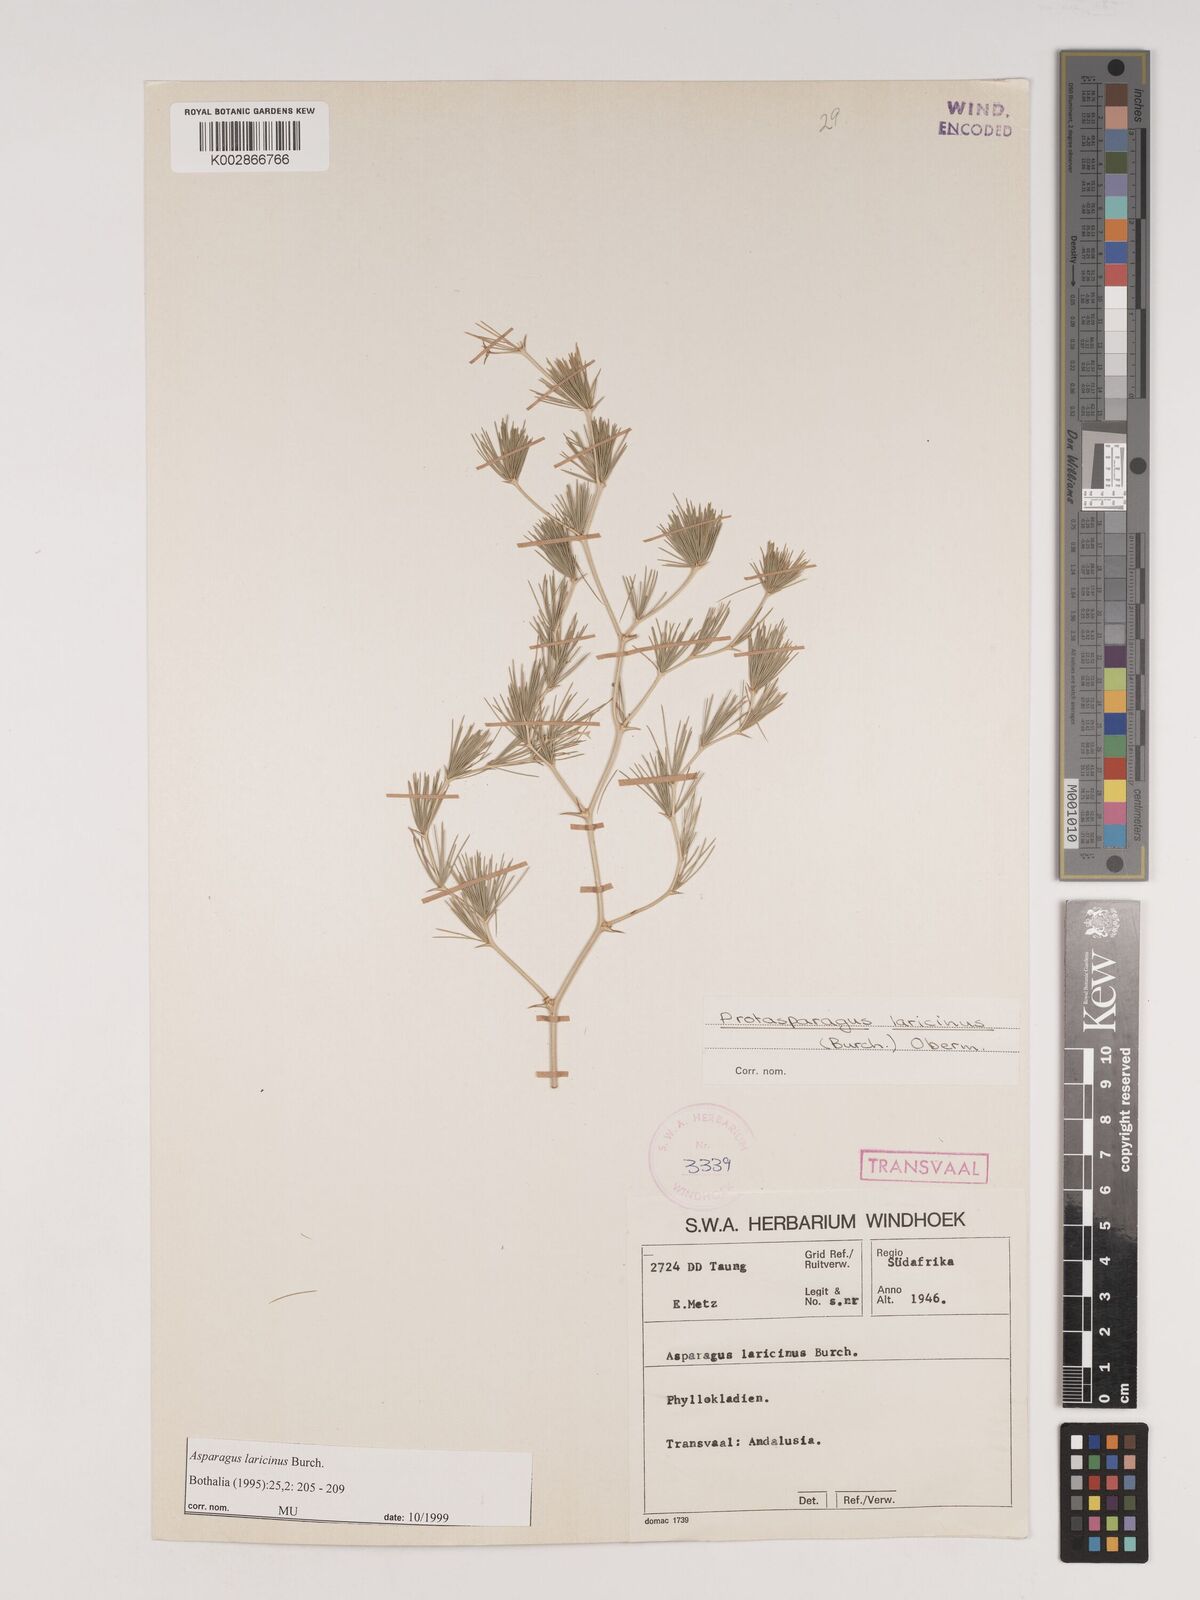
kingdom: Plantae
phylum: Tracheophyta
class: Liliopsida
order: Asparagales
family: Asparagaceae
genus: Asparagus
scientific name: Asparagus laricinus
